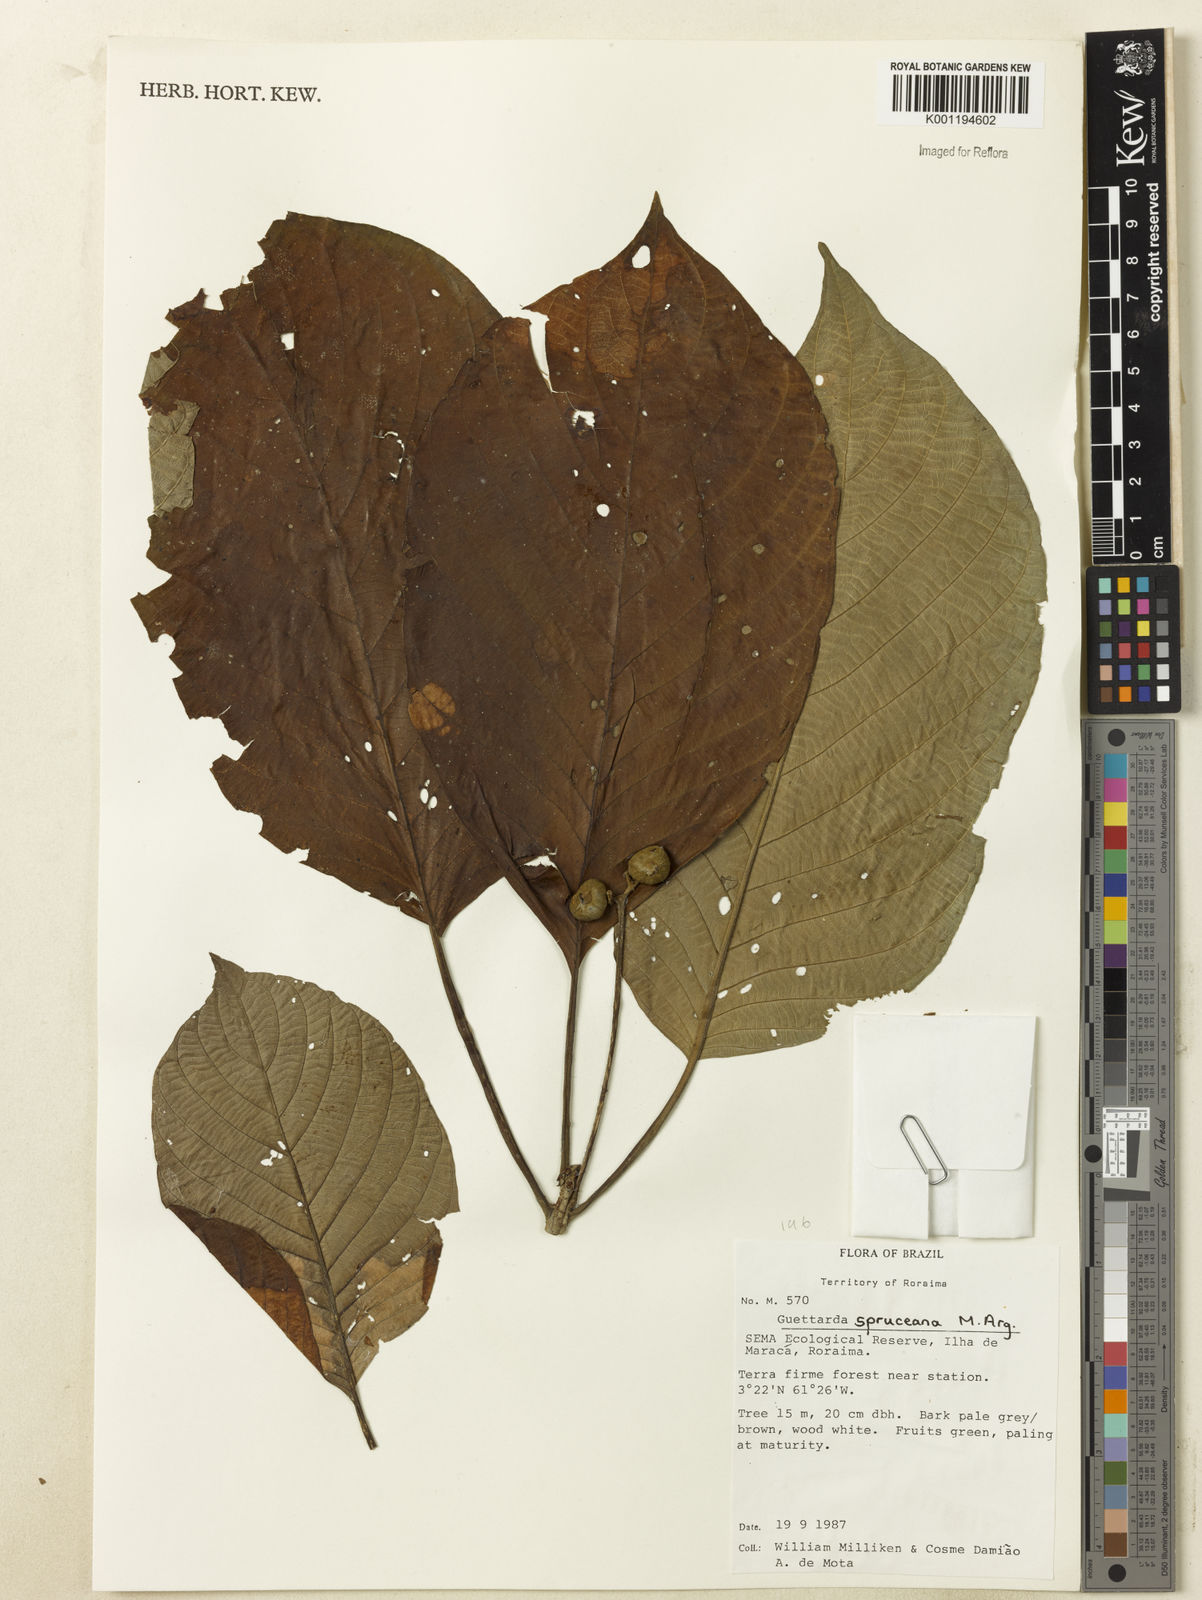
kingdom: Plantae
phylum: Tracheophyta
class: Magnoliopsida
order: Gentianales
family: Rubiaceae
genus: Guettarda
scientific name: Guettarda
